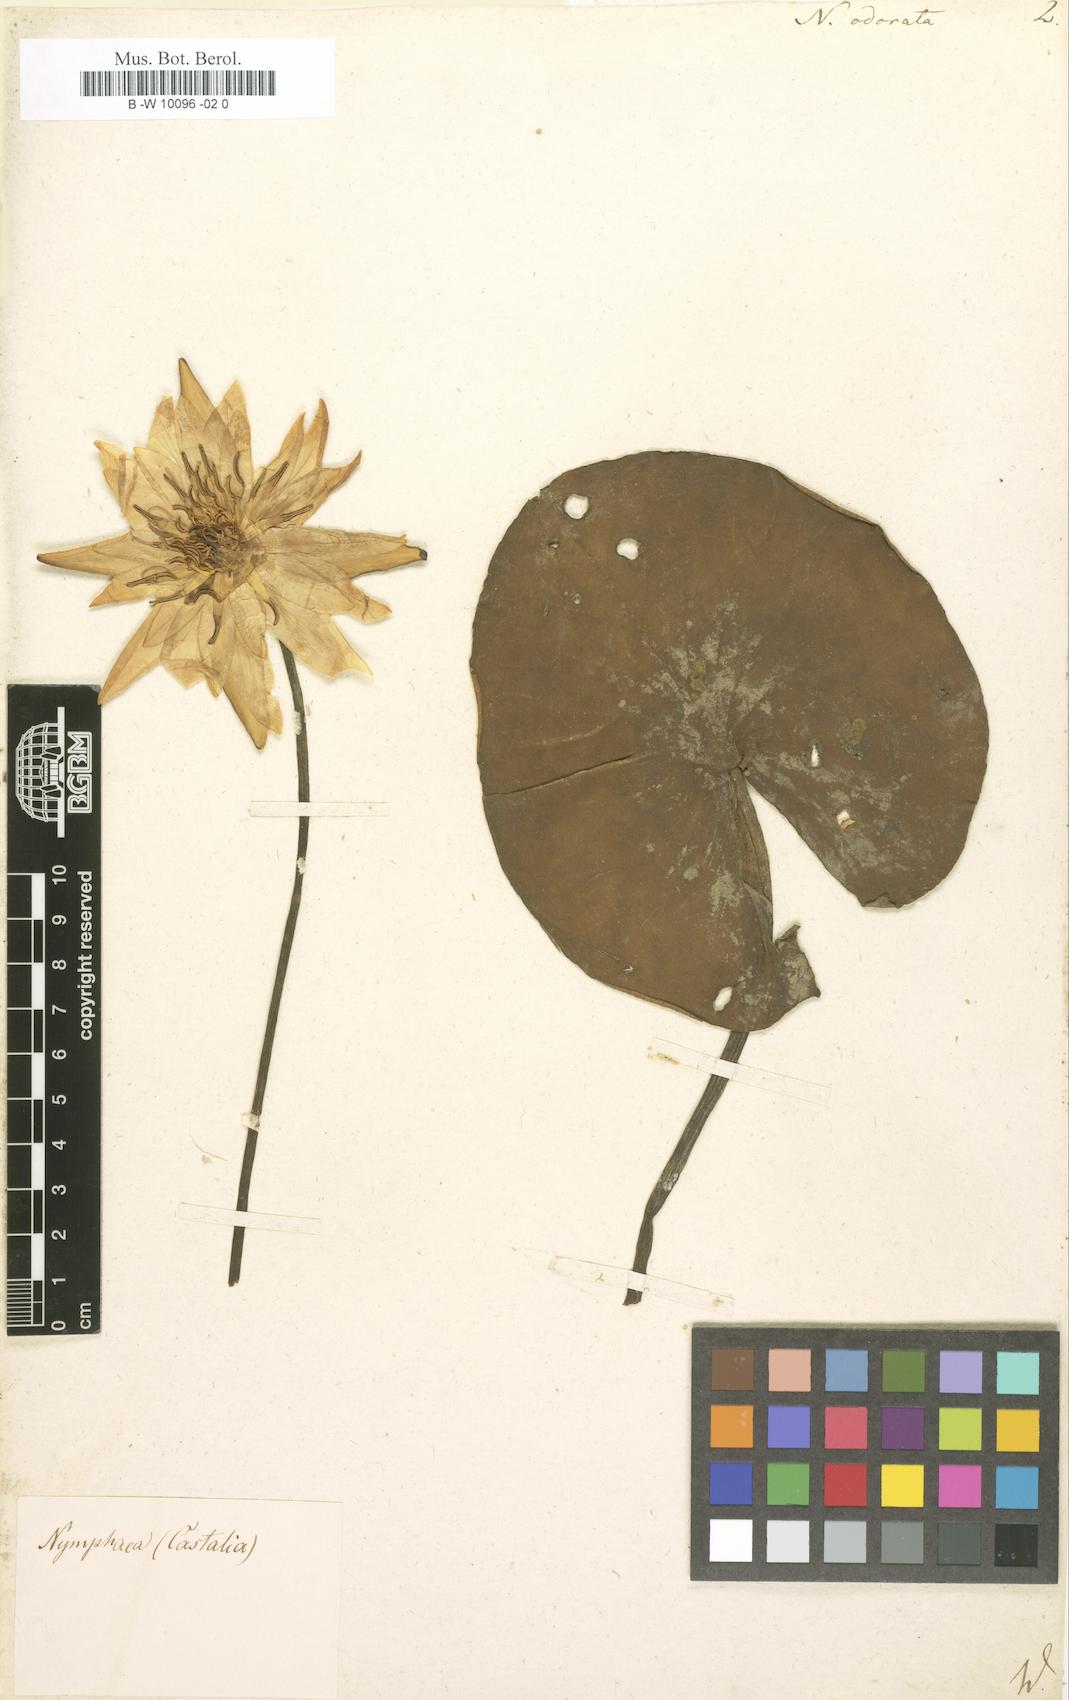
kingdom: Plantae
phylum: Tracheophyta
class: Magnoliopsida
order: Nymphaeales
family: Nymphaeaceae
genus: Nymphaea
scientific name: Nymphaea odorata
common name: Fragrant water-lily
